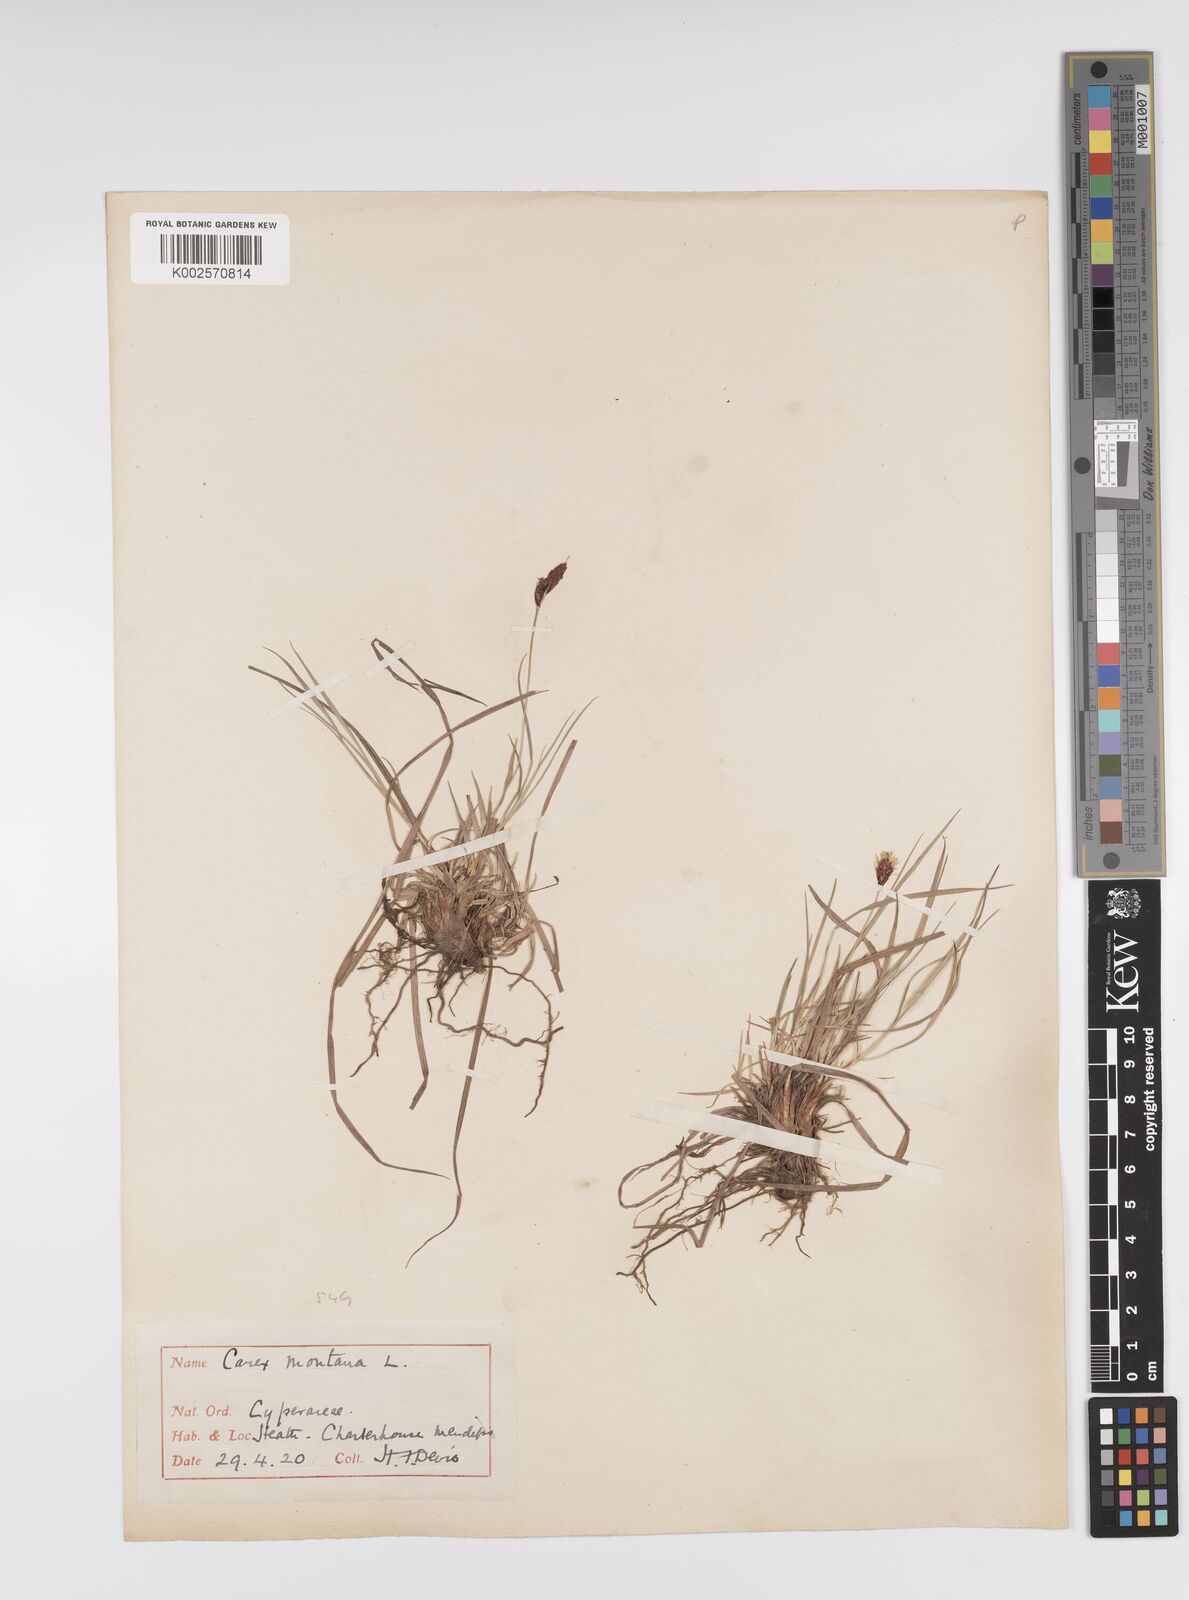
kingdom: Plantae
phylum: Tracheophyta
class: Liliopsida
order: Poales
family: Cyperaceae
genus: Carex
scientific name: Carex montana
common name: Soft-leaved sedge
